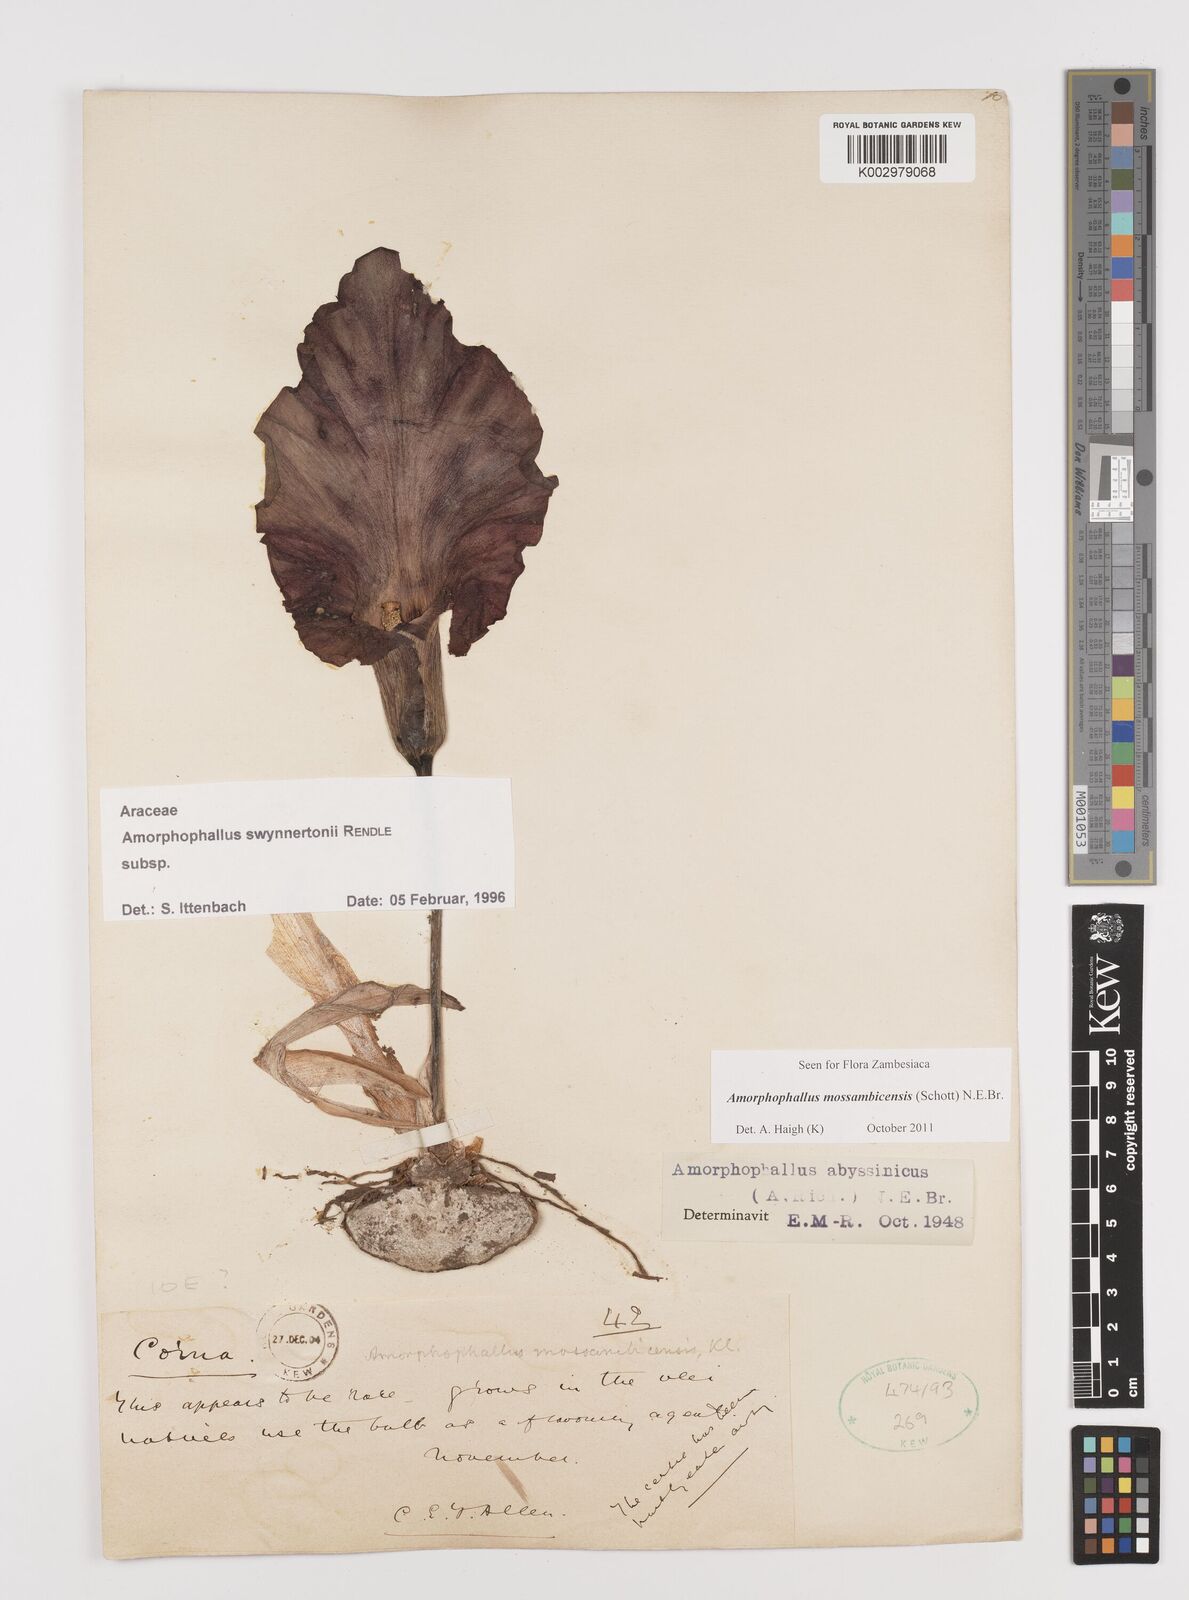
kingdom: Plantae
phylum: Tracheophyta
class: Liliopsida
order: Alismatales
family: Araceae
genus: Amorphophallus
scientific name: Amorphophallus mossambicensis
